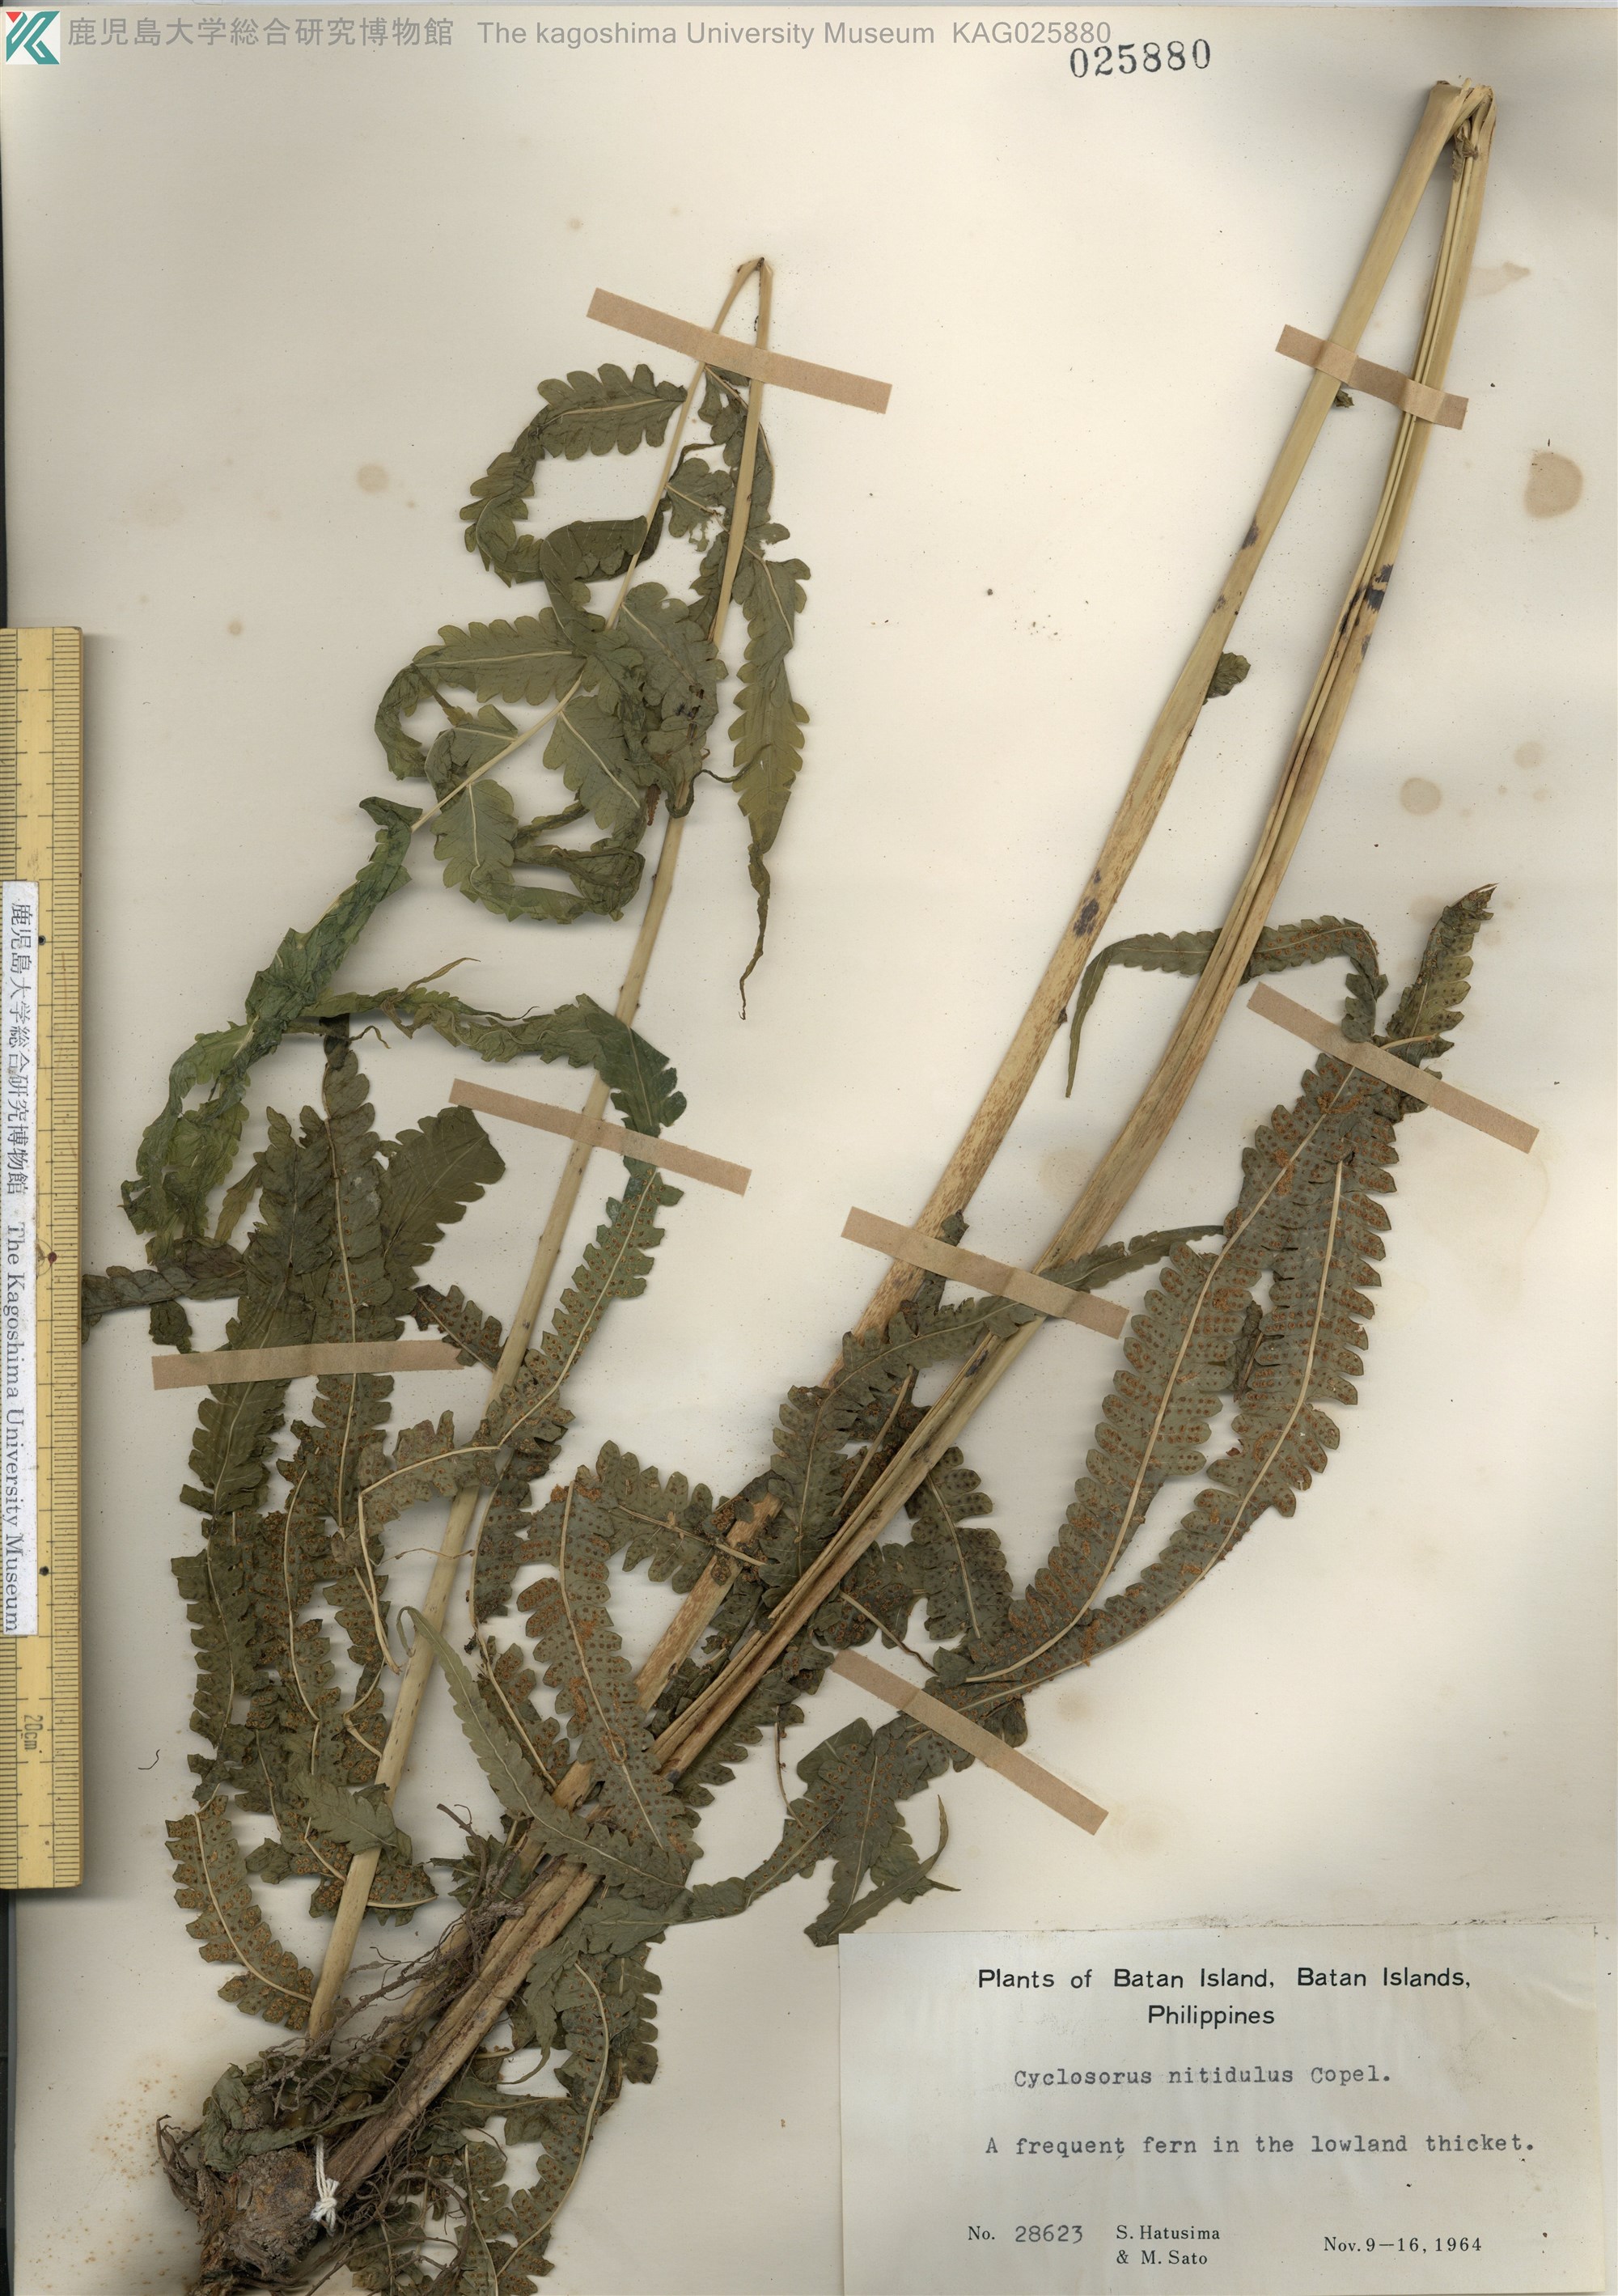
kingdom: Plantae
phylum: Tracheophyta
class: Polypodiopsida
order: Polypodiales
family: Thelypteridaceae
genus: Reholttumia
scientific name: Reholttumia nitidula
